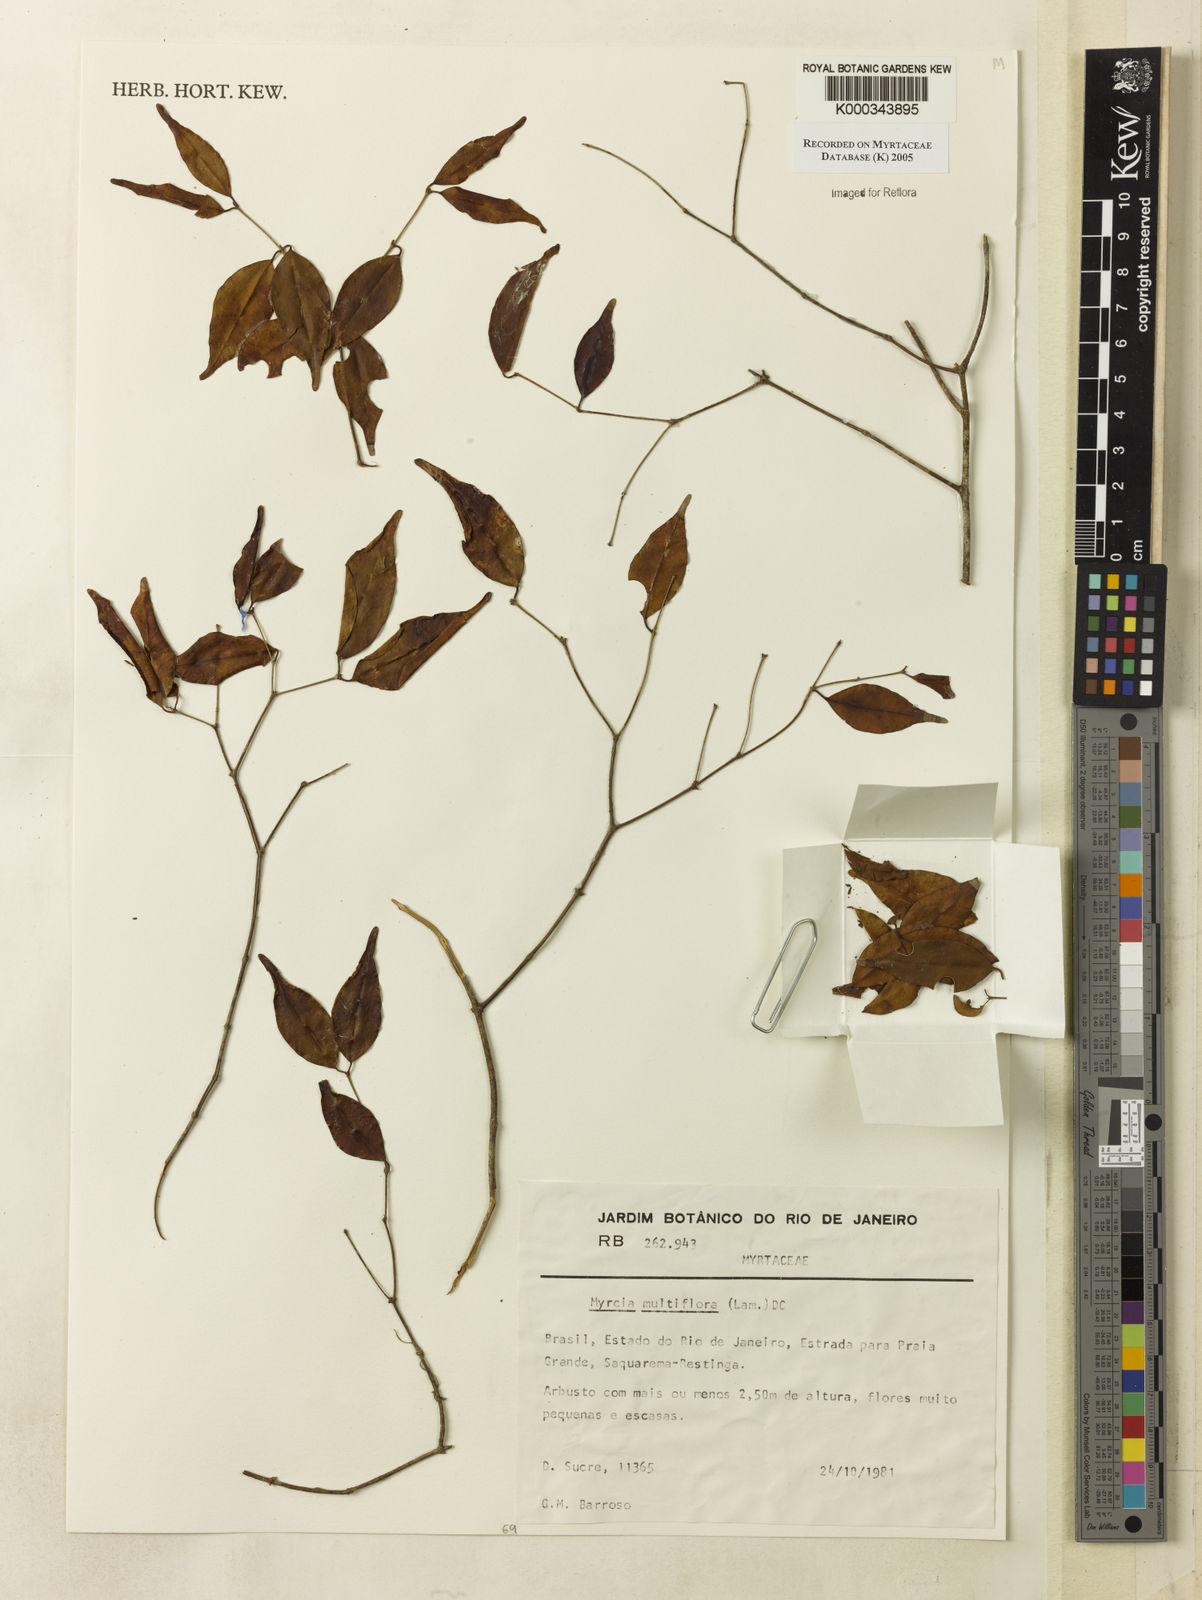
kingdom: Plantae
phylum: Tracheophyta
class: Magnoliopsida
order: Myrtales
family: Myrtaceae
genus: Myrcia
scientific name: Myrcia multiflora
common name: Pedra hume
